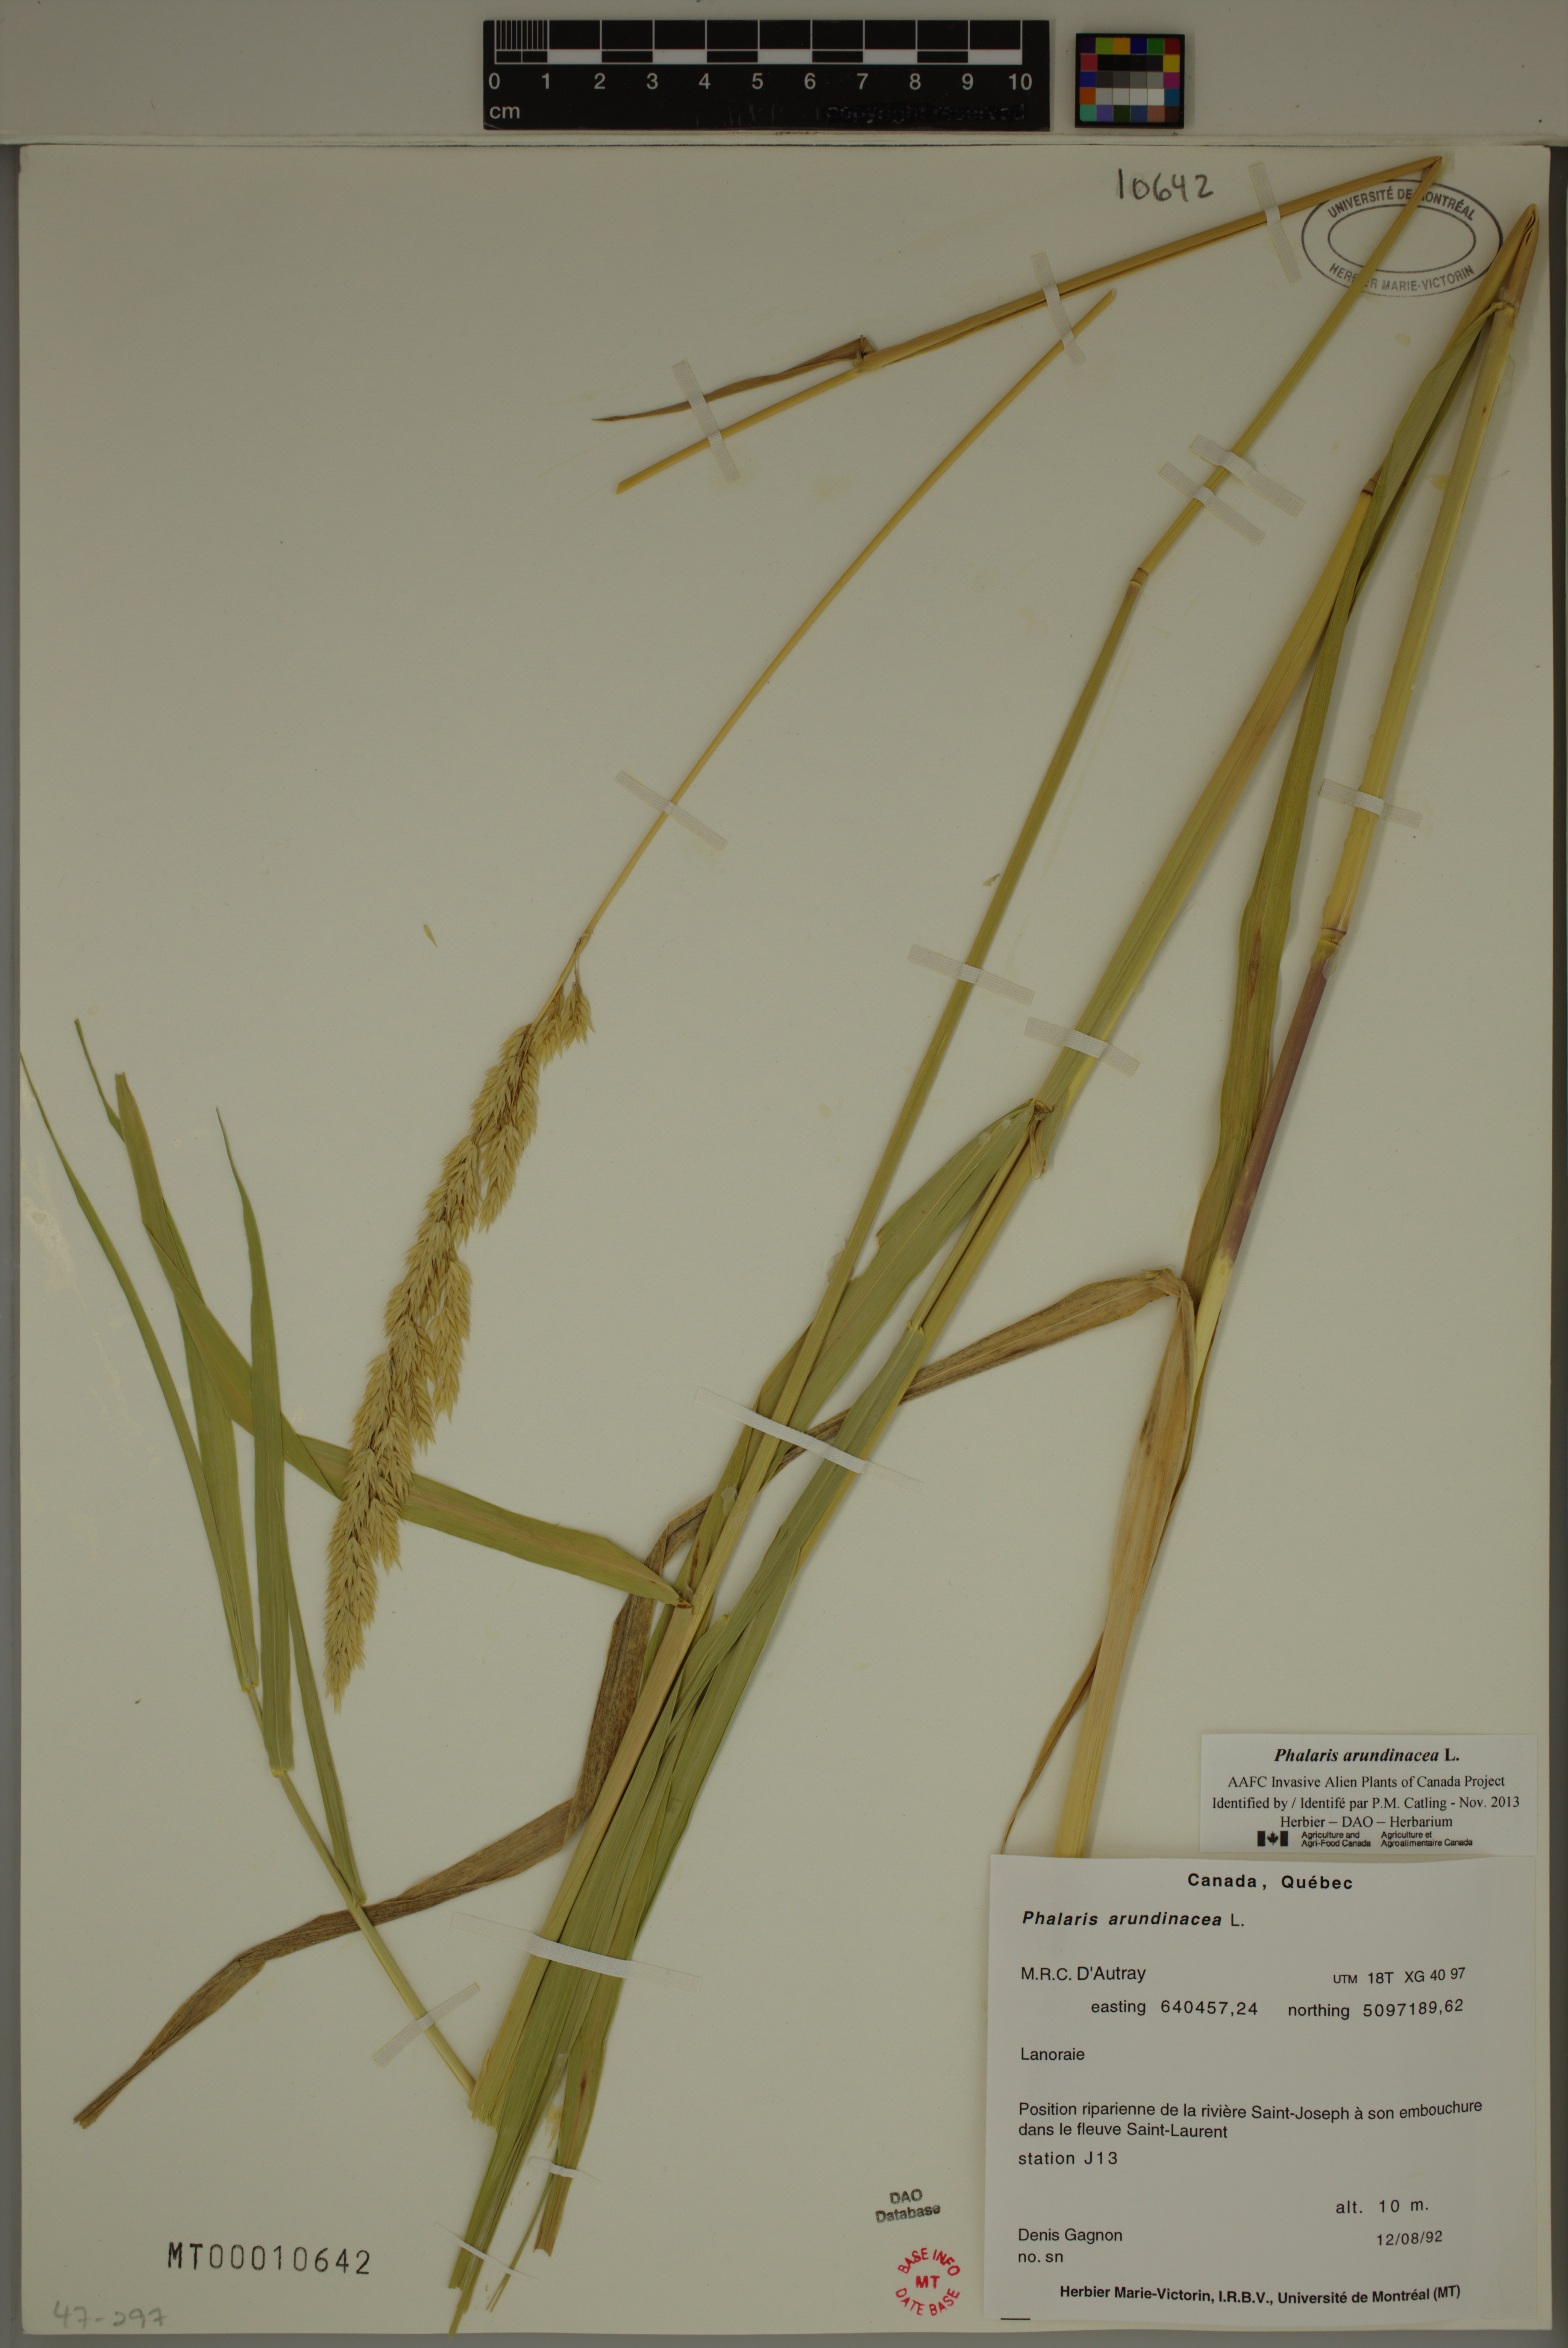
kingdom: Plantae
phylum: Tracheophyta
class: Liliopsida
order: Poales
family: Poaceae
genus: Phalaris
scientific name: Phalaris arundinacea
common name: Reed canary-grass
